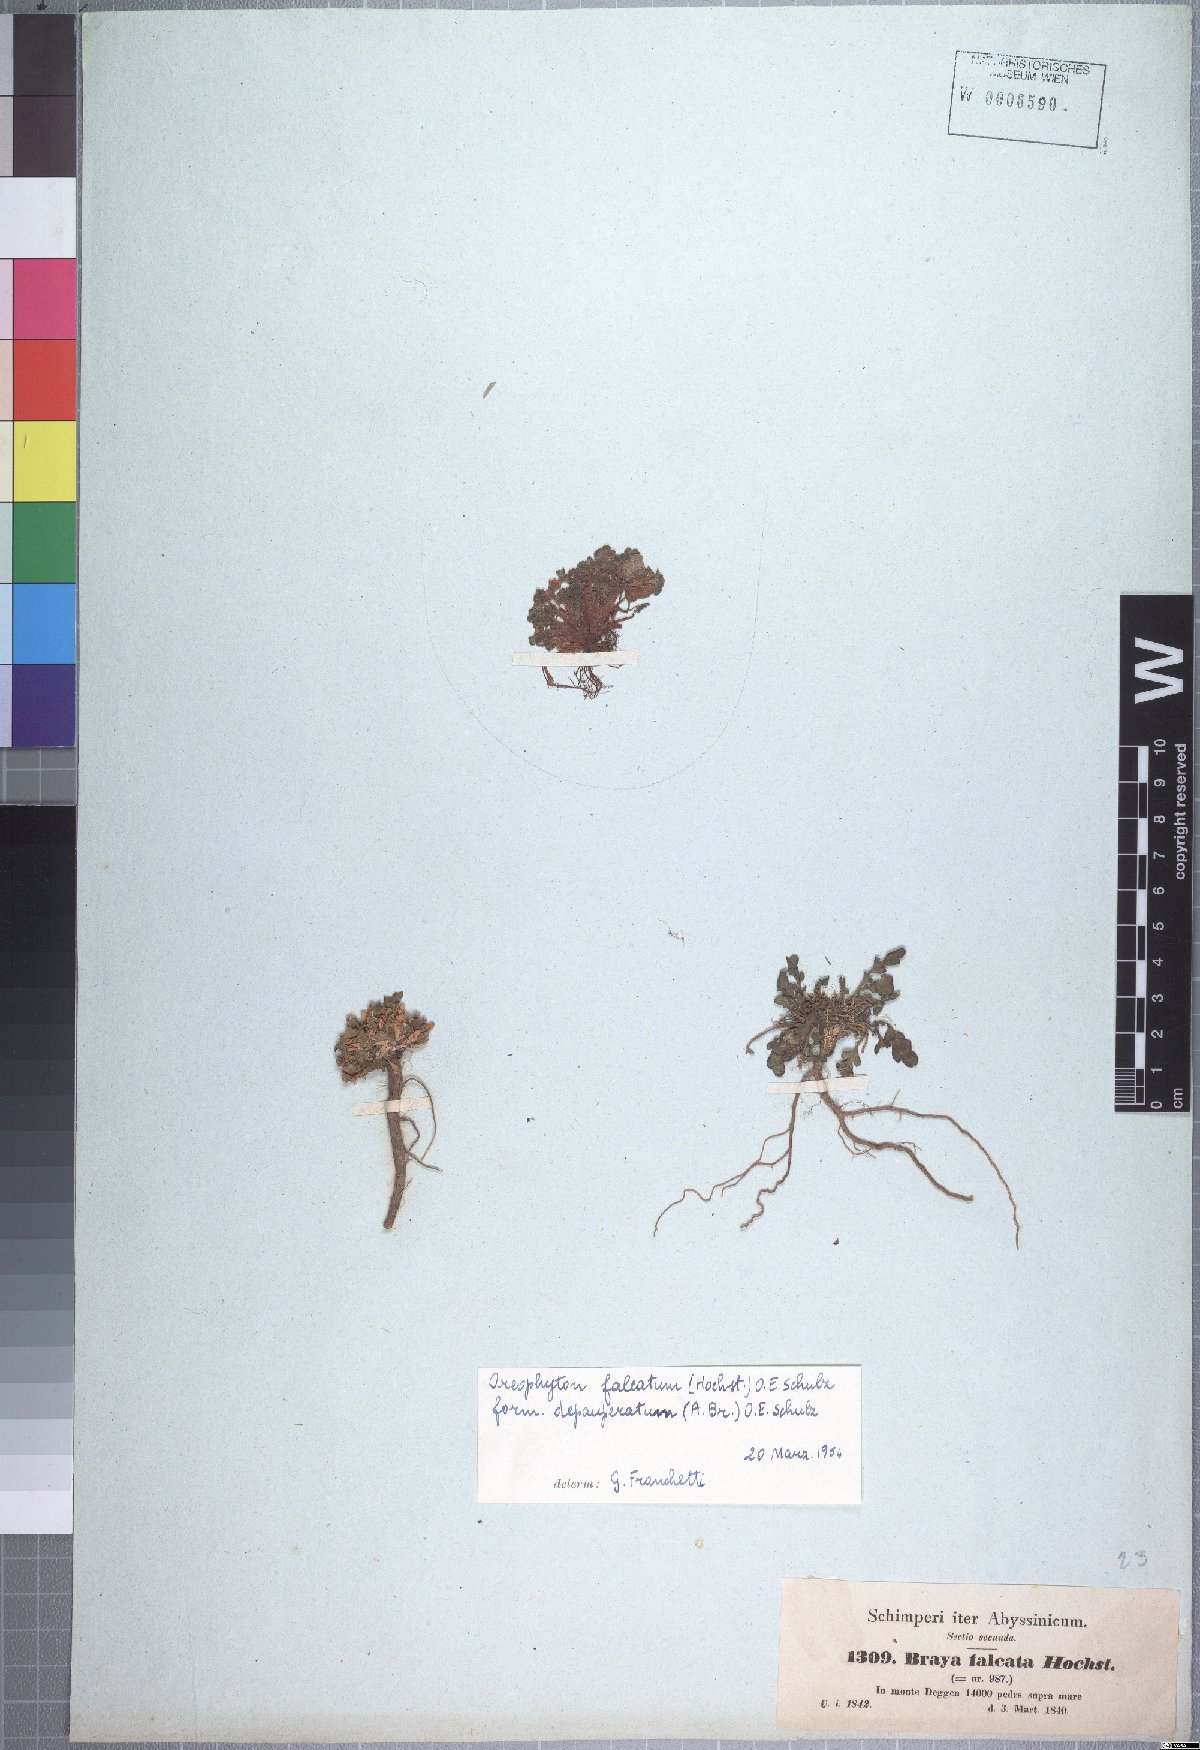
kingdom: Plantae
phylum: Tracheophyta
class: Magnoliopsida
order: Brassicales
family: Brassicaceae
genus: Oreophyton
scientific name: Oreophyton falcatum
